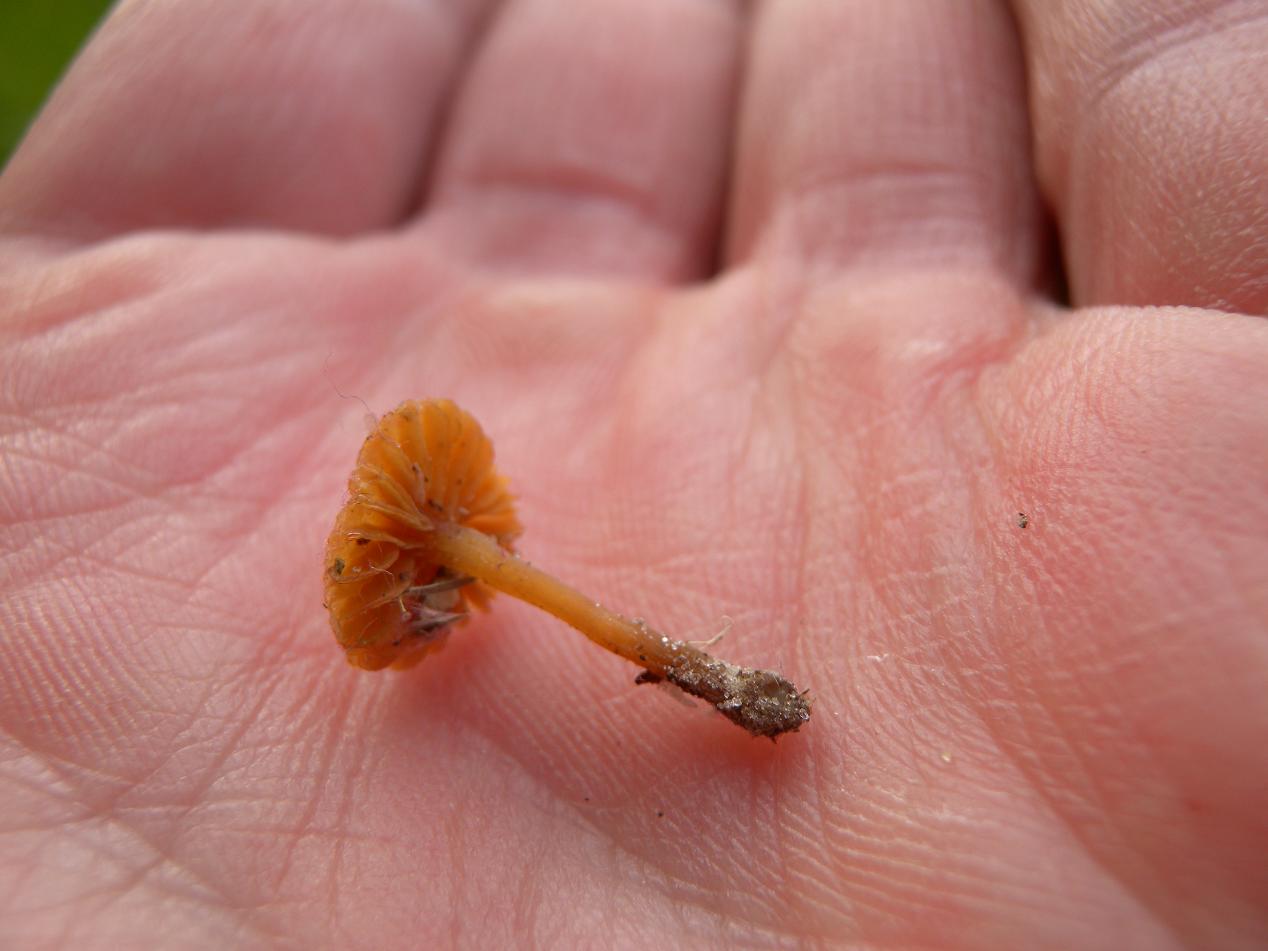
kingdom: Fungi
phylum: Basidiomycota
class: Agaricomycetes
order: Agaricales
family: Hymenogastraceae
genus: Galerina
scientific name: Galerina cinctula
